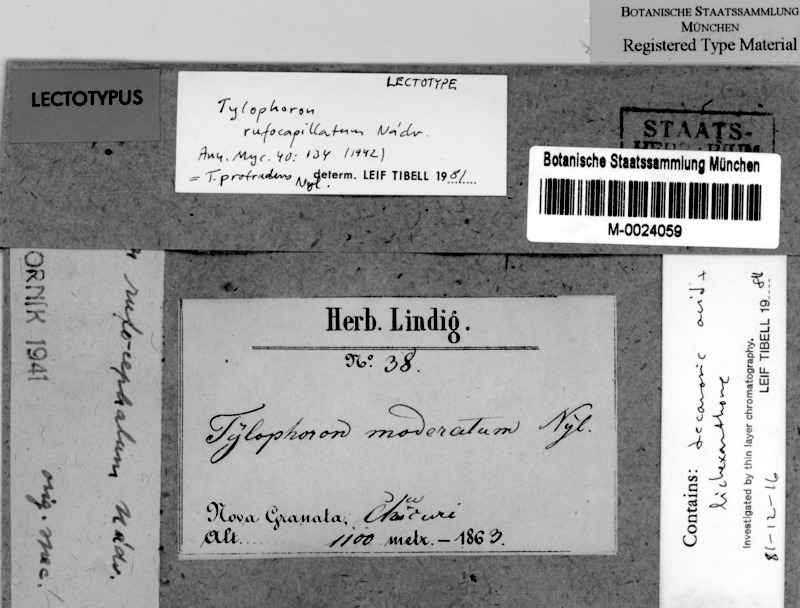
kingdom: Fungi
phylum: Ascomycota
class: Arthoniomycetes
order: Arthoniales
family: Arthoniaceae
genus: Tylophoron
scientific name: Tylophoron protrudens
